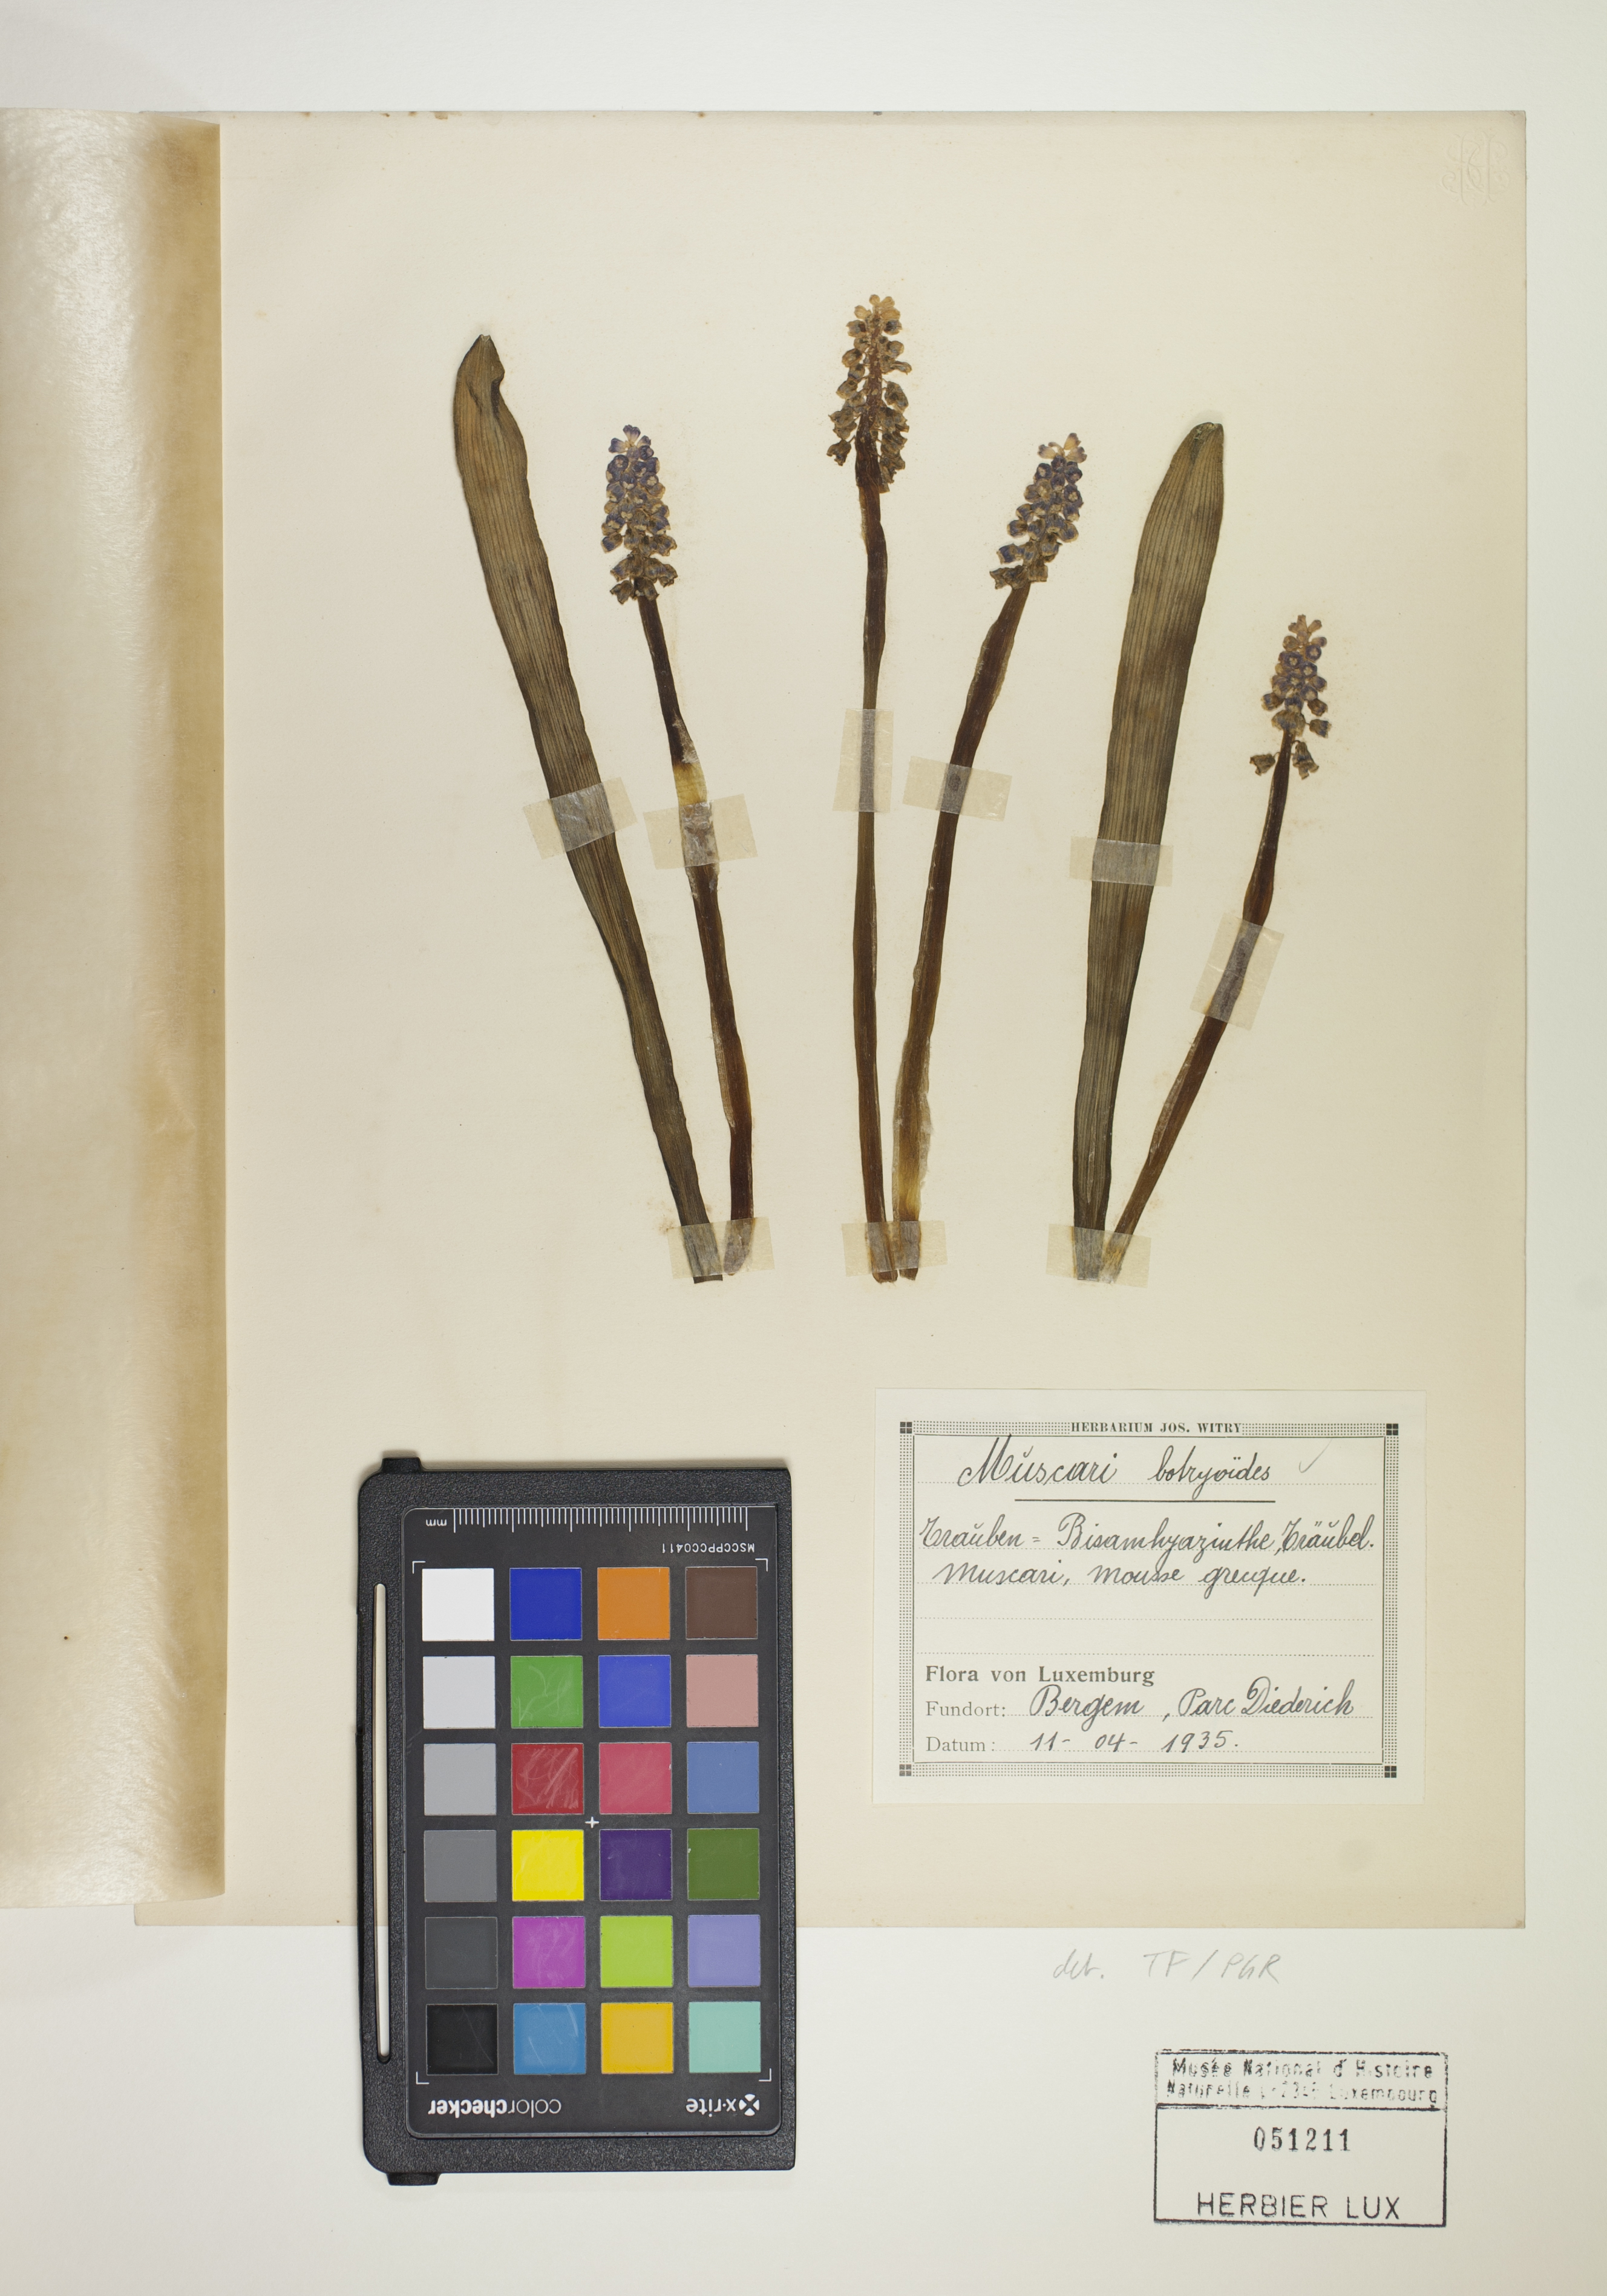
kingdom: Plantae
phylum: Tracheophyta
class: Liliopsida
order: Asparagales
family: Asparagaceae
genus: Muscari
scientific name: Muscari botryoides
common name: Compact grape-hyacinth
